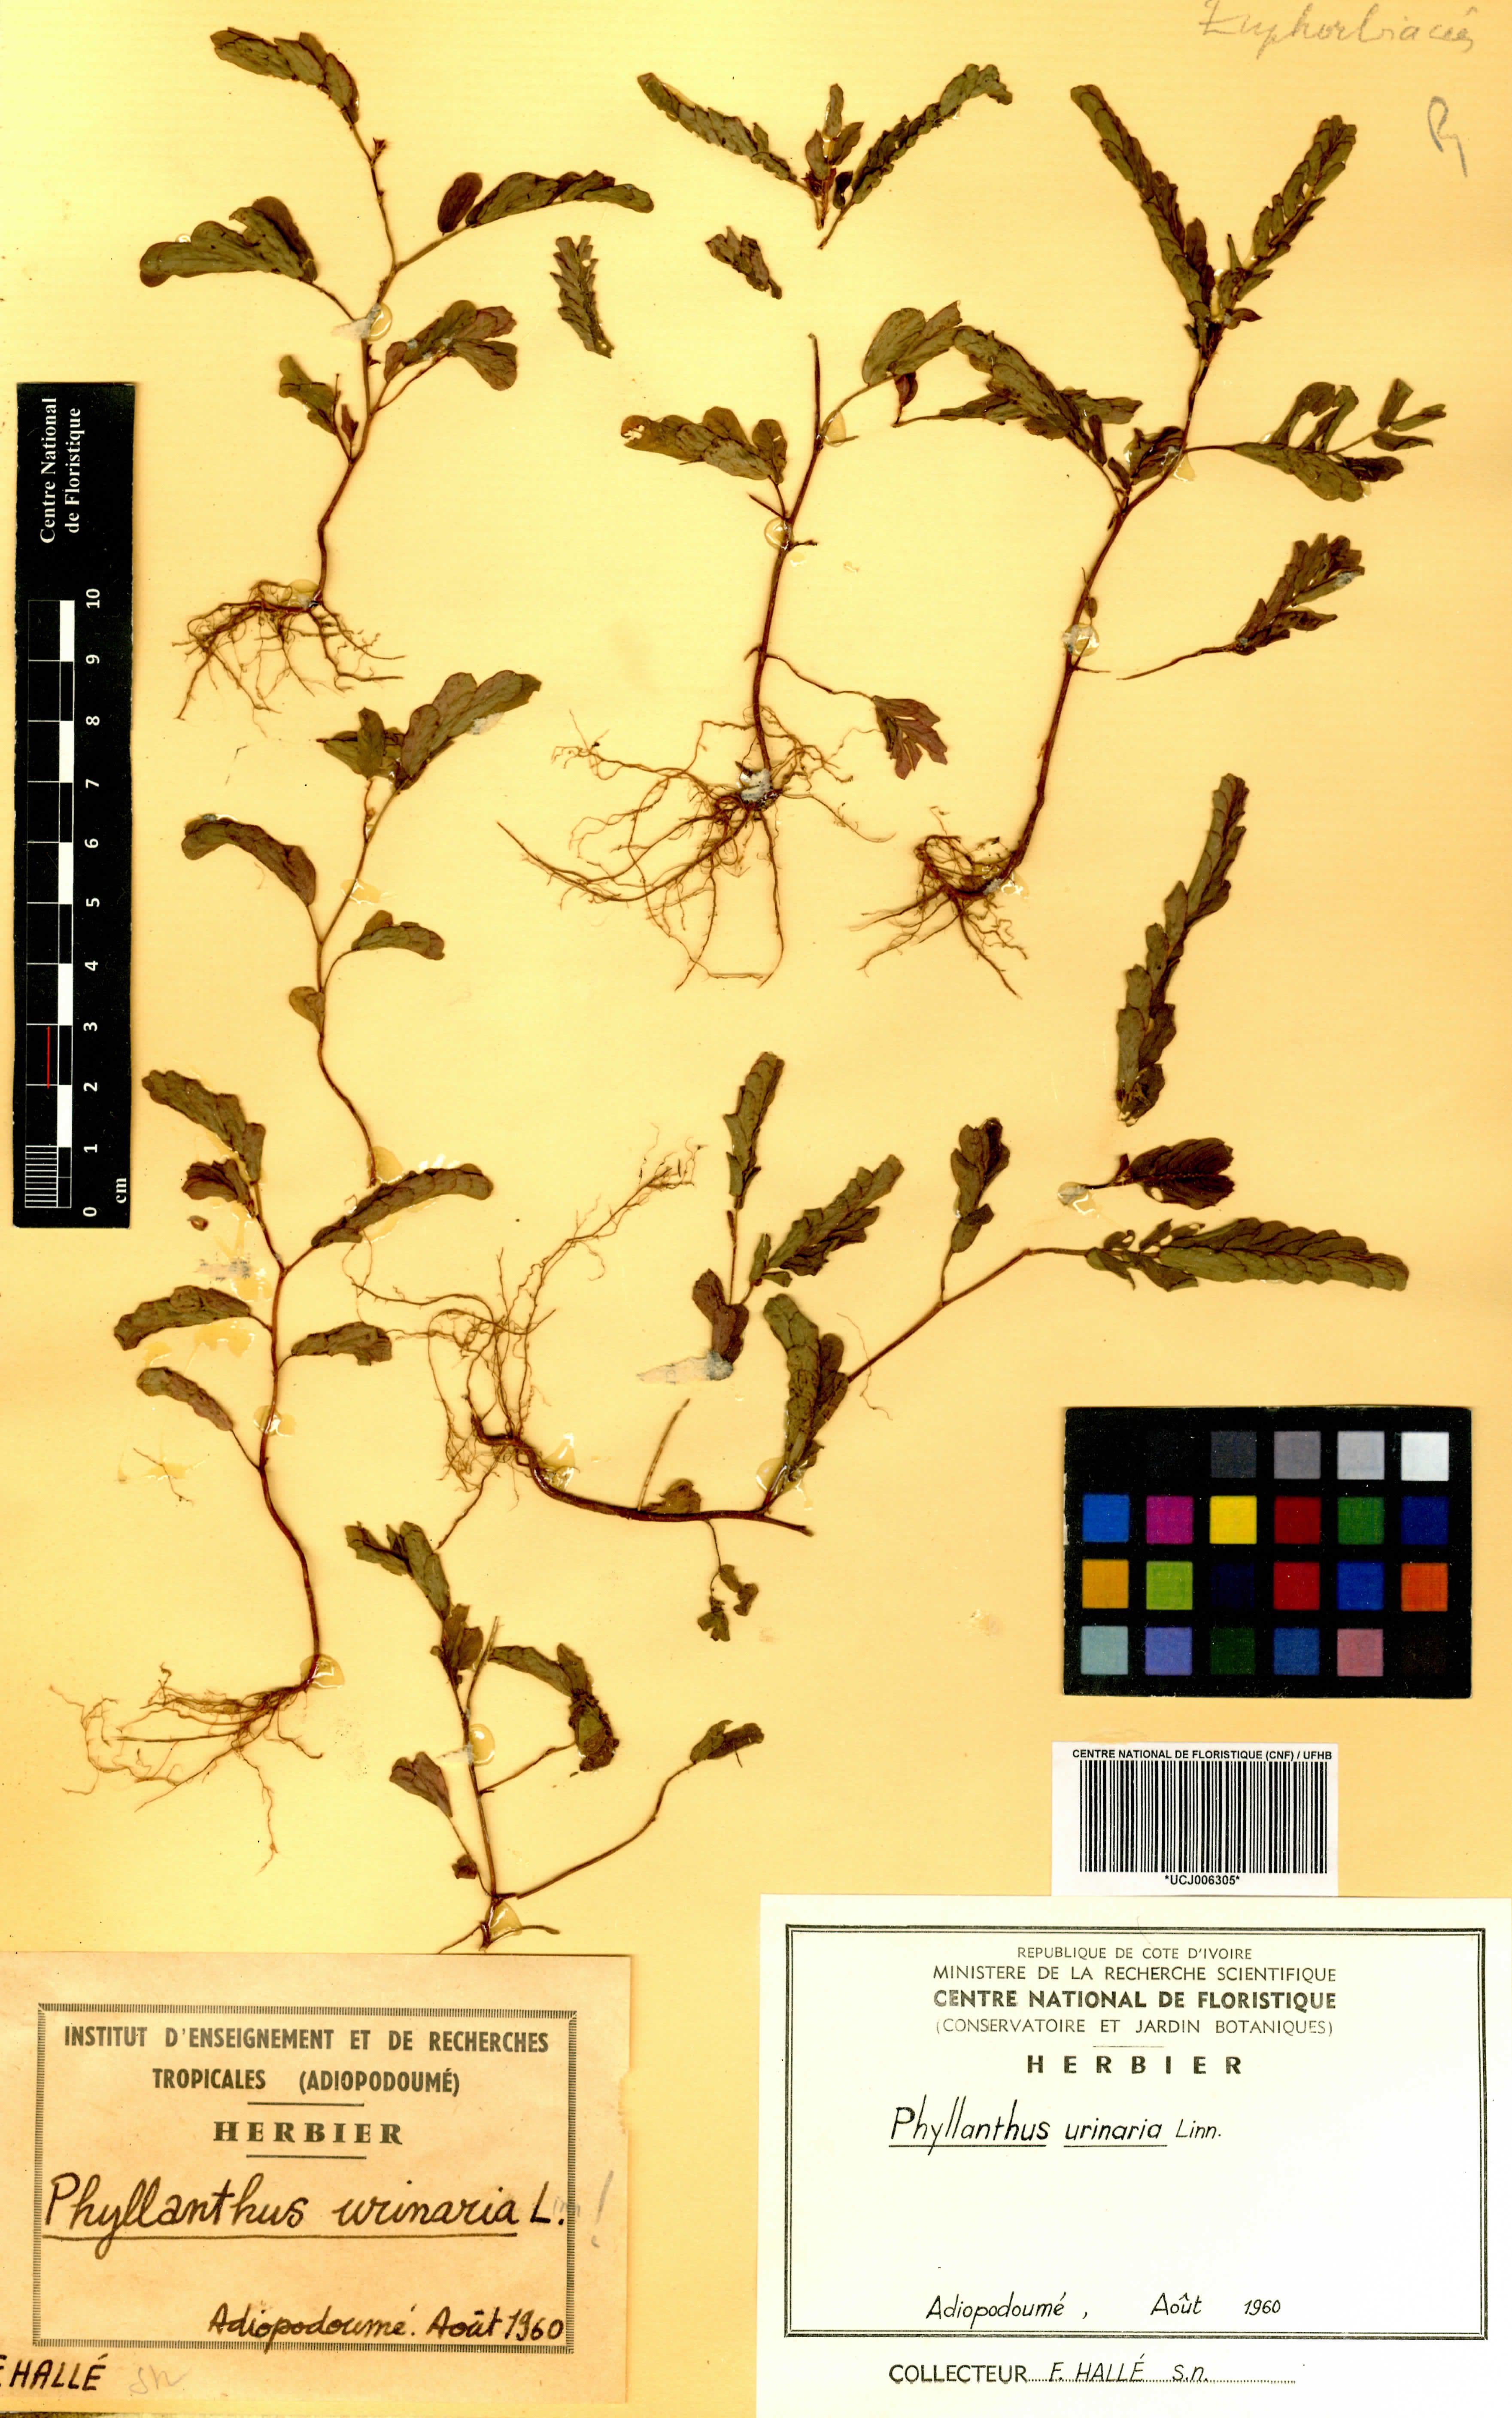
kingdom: Plantae
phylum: Tracheophyta
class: Magnoliopsida
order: Malpighiales
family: Phyllanthaceae
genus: Phyllanthus
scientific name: Phyllanthus urinaria
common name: Chamber bitter
